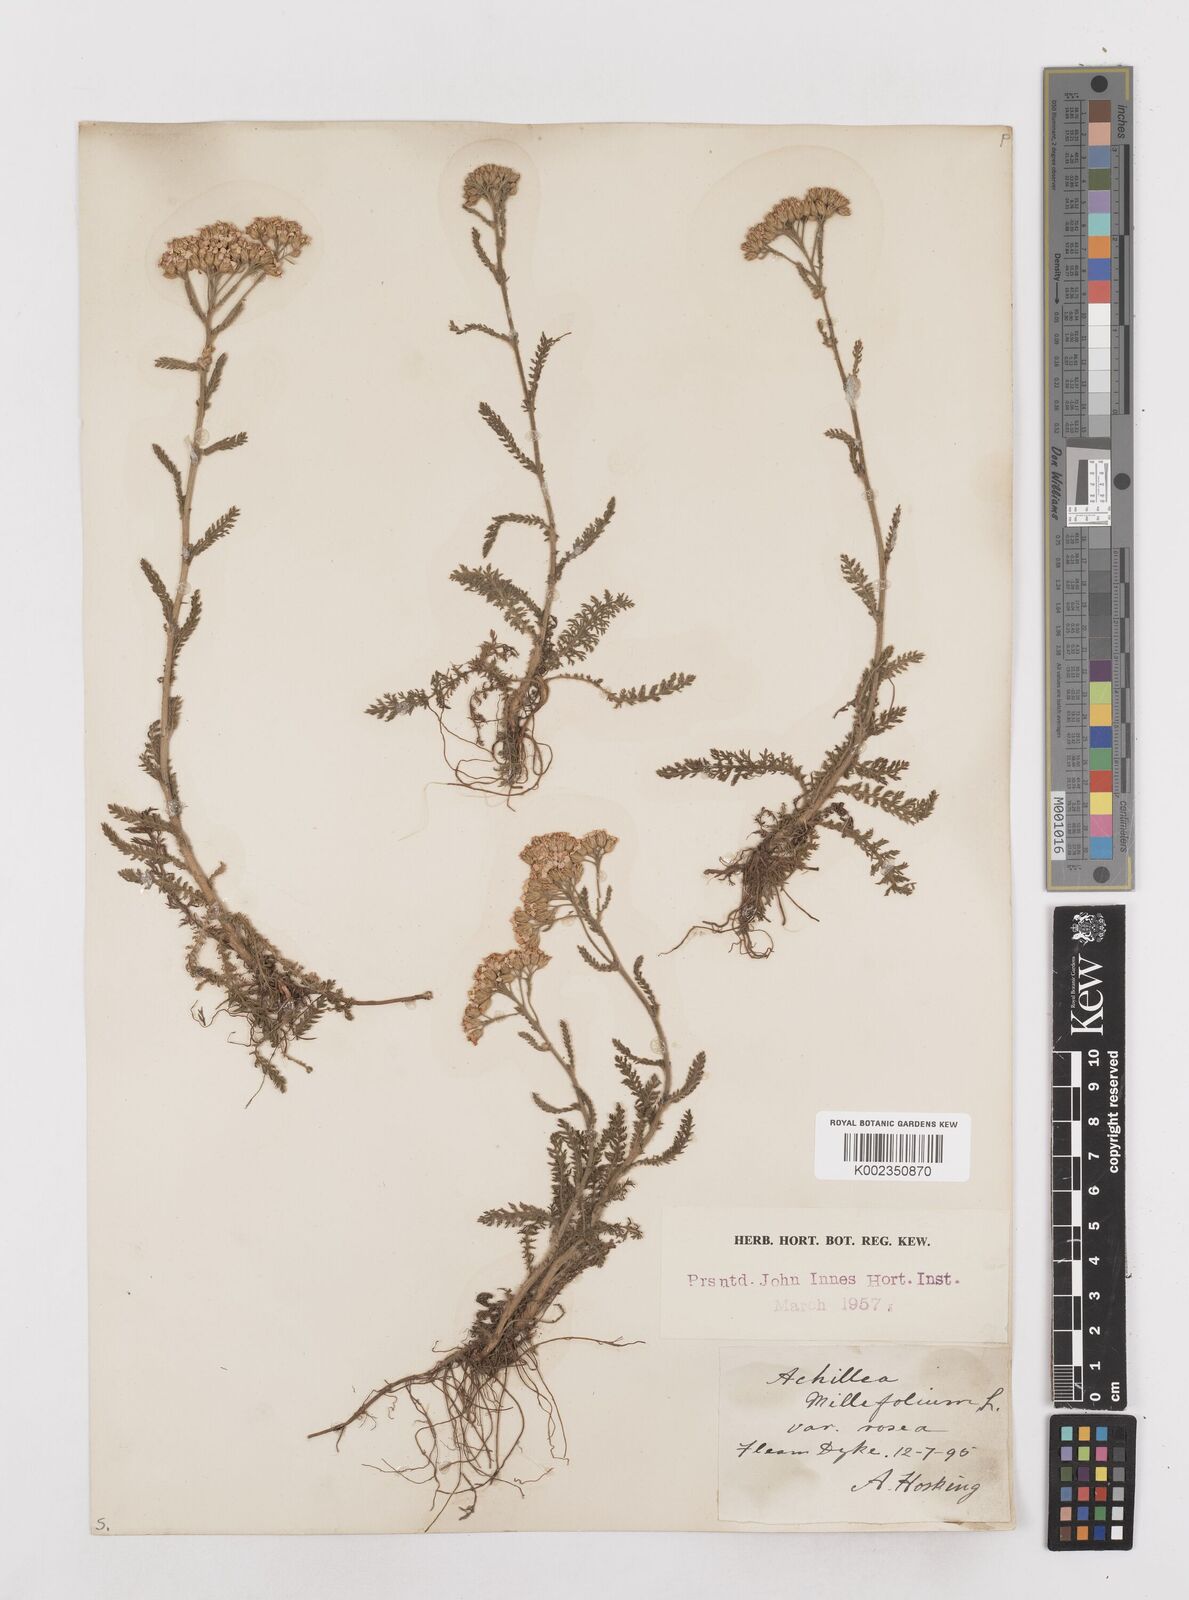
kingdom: Plantae
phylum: Tracheophyta
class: Magnoliopsida
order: Asterales
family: Asteraceae
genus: Achillea
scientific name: Achillea millefolium
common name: Yarrow
